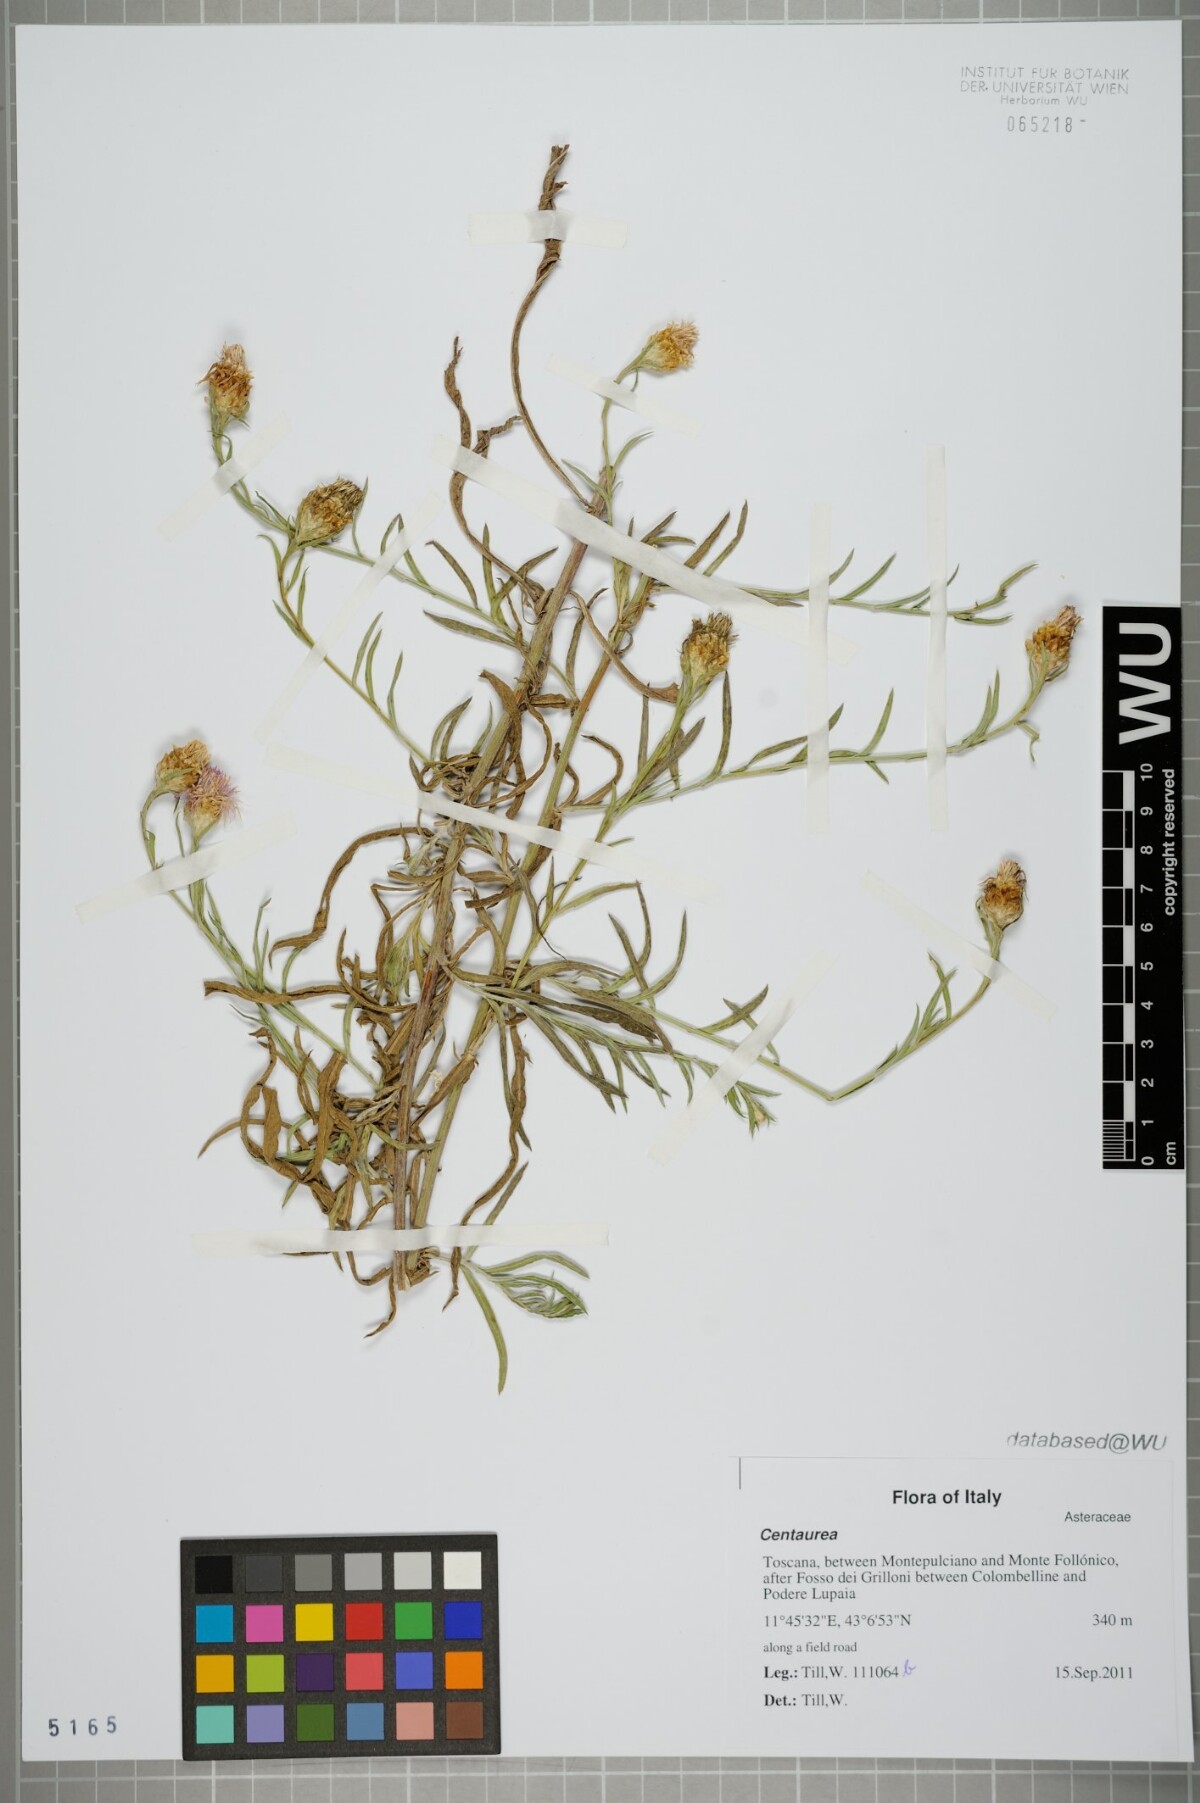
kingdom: Plantae
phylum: Tracheophyta
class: Magnoliopsida
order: Asterales
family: Asteraceae
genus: Centaurea
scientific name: Centaurea
